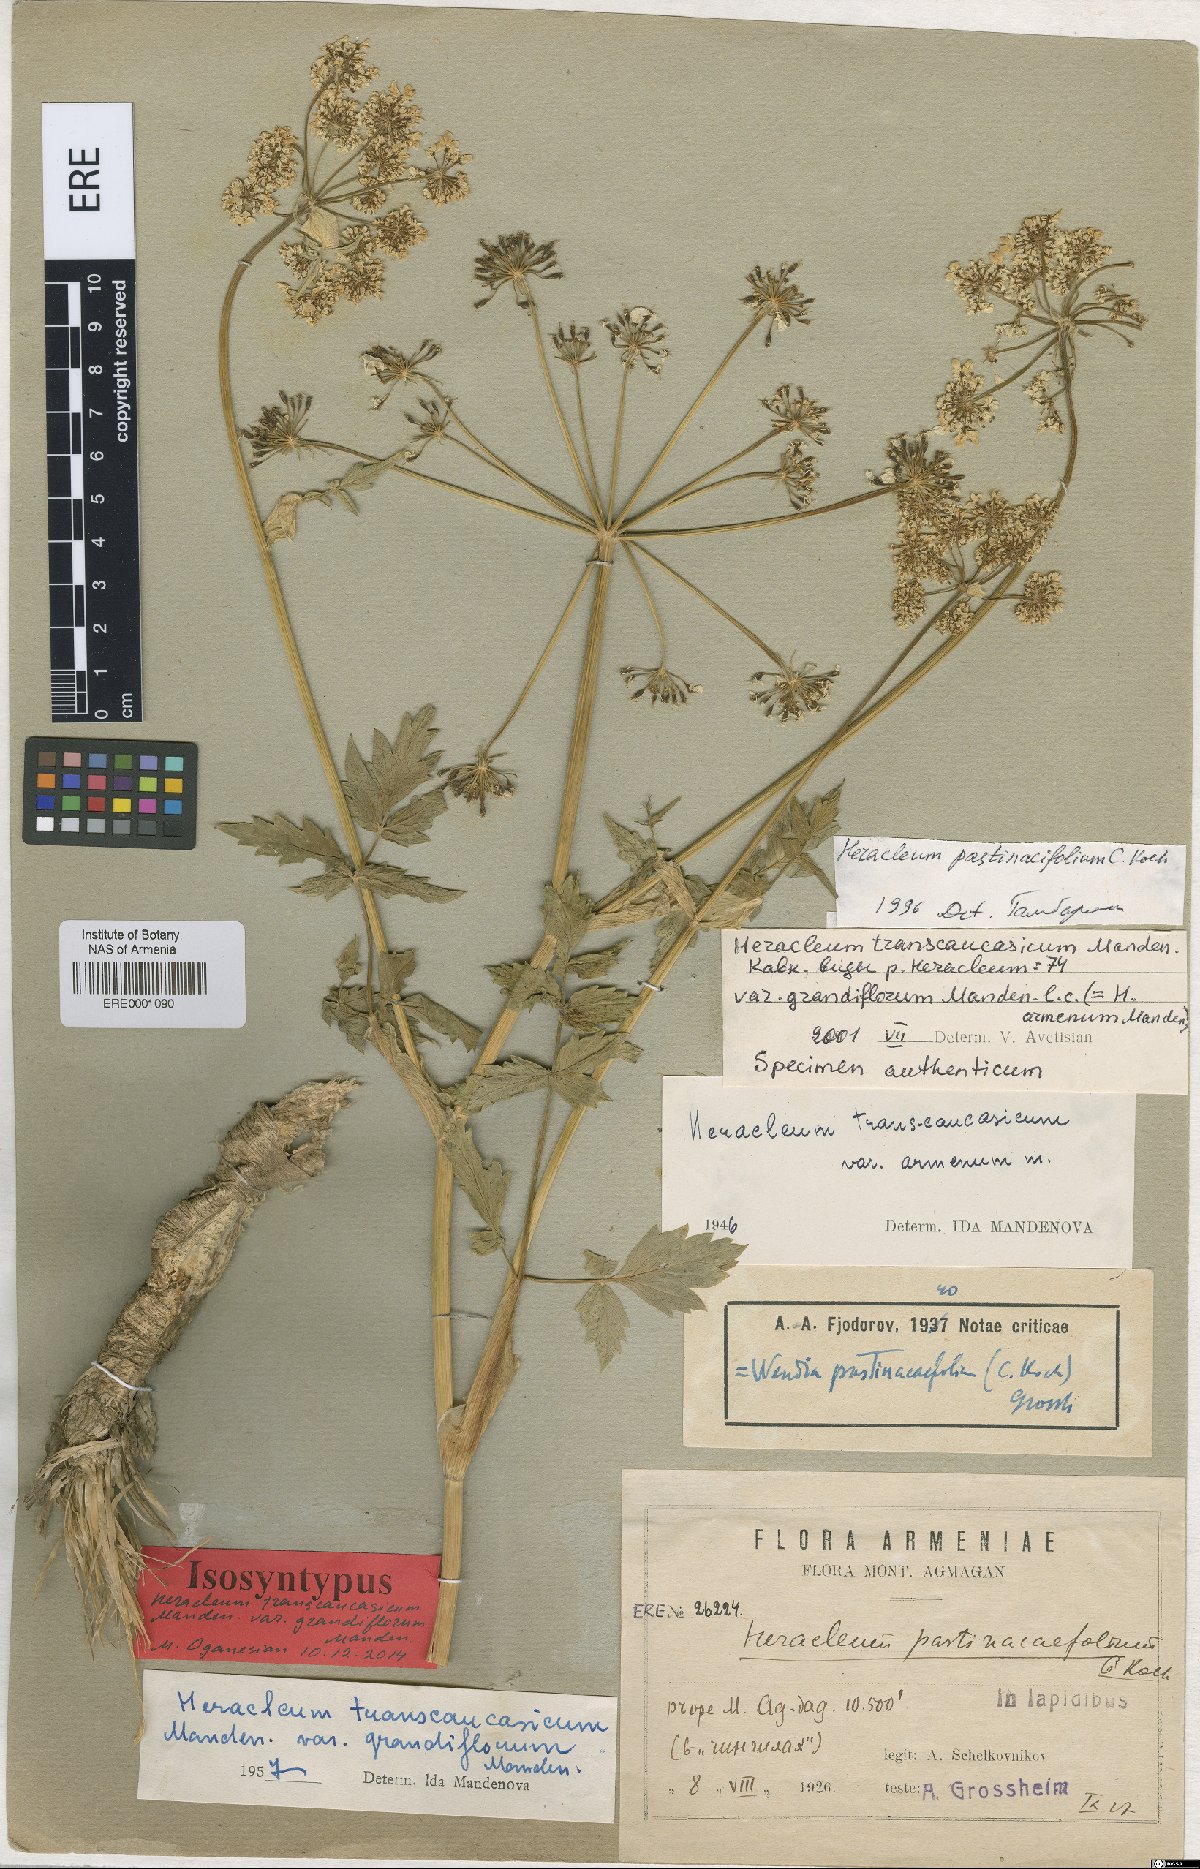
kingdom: Plantae
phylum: Tracheophyta
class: Magnoliopsida
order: Apiales
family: Apiaceae
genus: Heracleum
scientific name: Heracleum pastinacifolium
